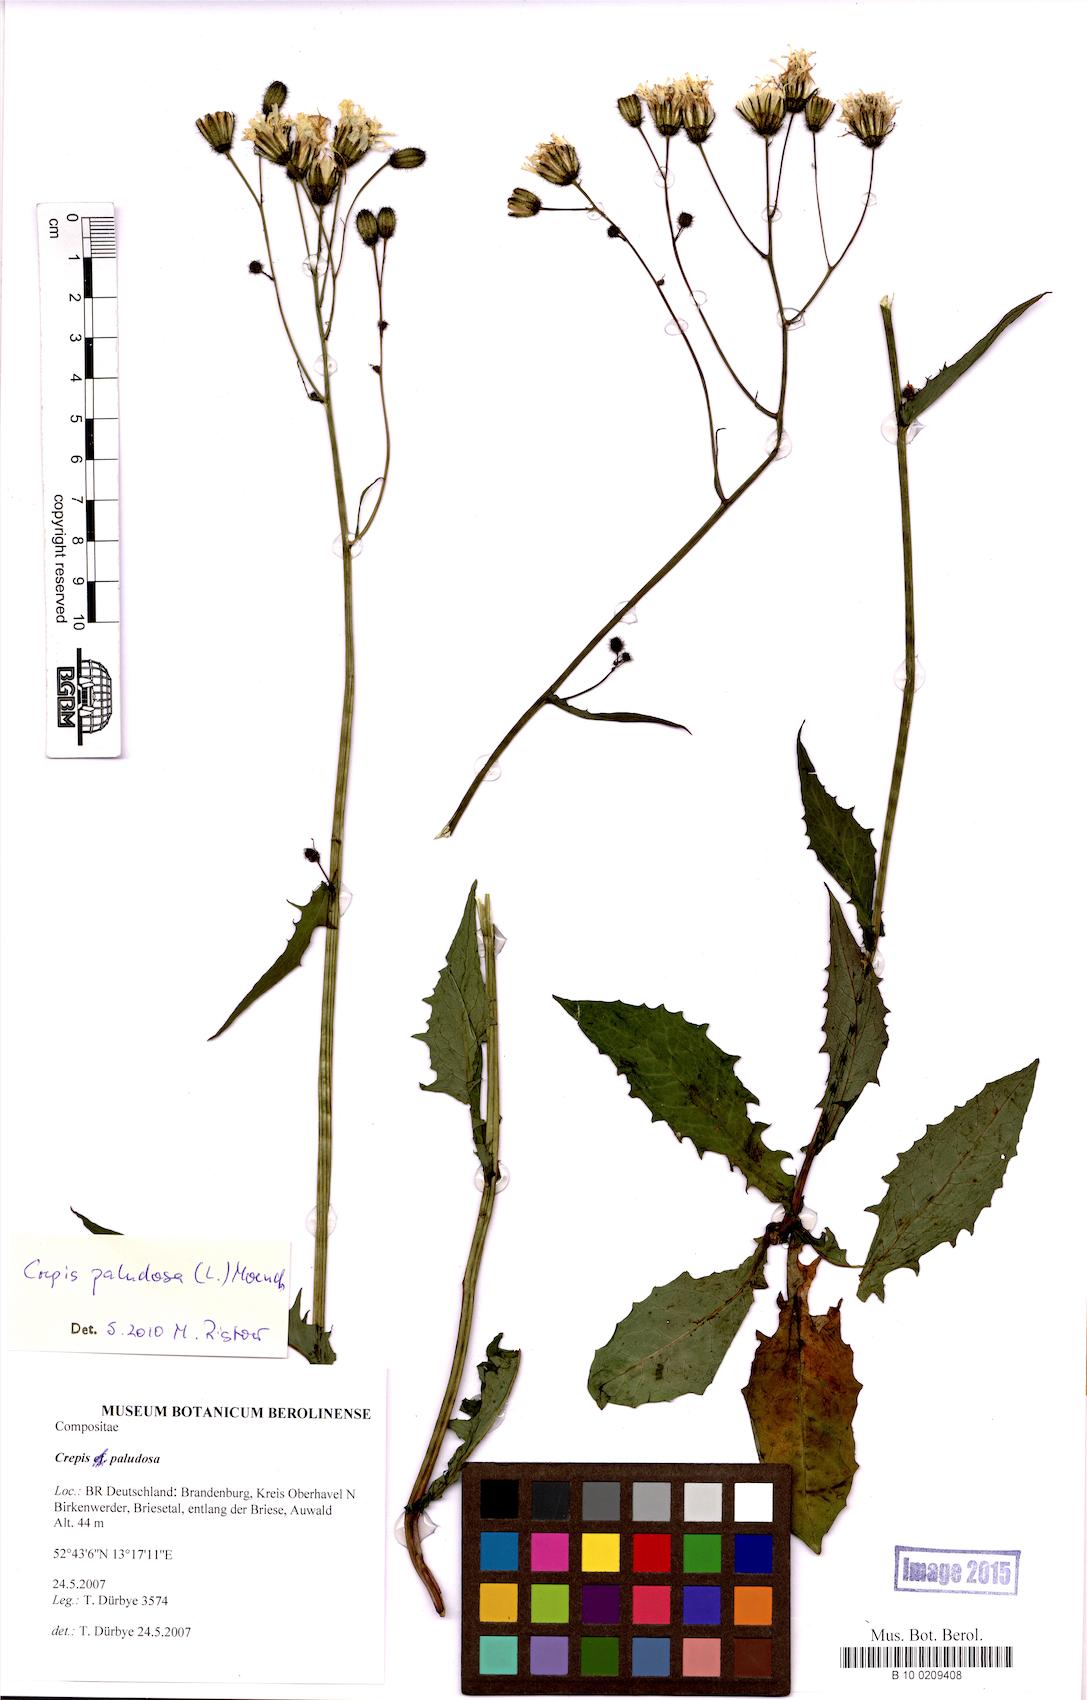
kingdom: Plantae
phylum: Tracheophyta
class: Magnoliopsida
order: Asterales
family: Asteraceae
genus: Crepis
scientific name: Crepis paludosa
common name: Marsh hawk's-beard
